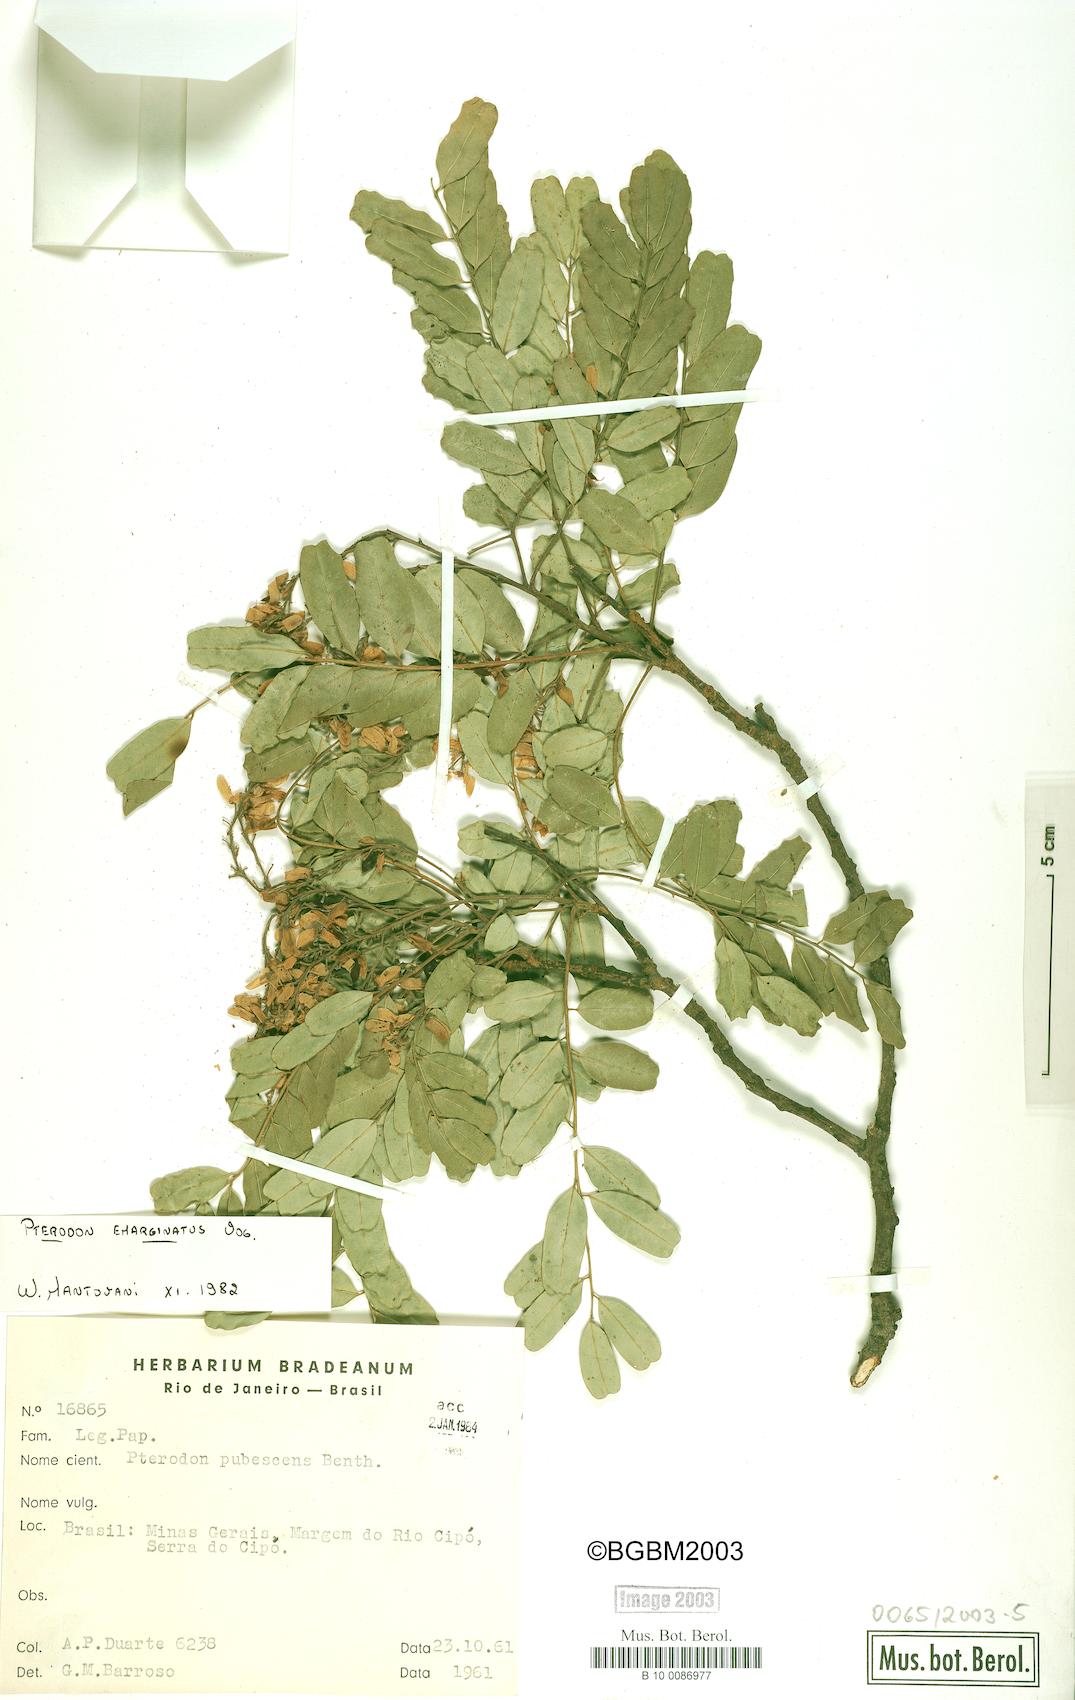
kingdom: Plantae
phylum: Tracheophyta
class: Magnoliopsida
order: Fabales
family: Fabaceae
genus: Pterodon
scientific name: Pterodon emarginatus
